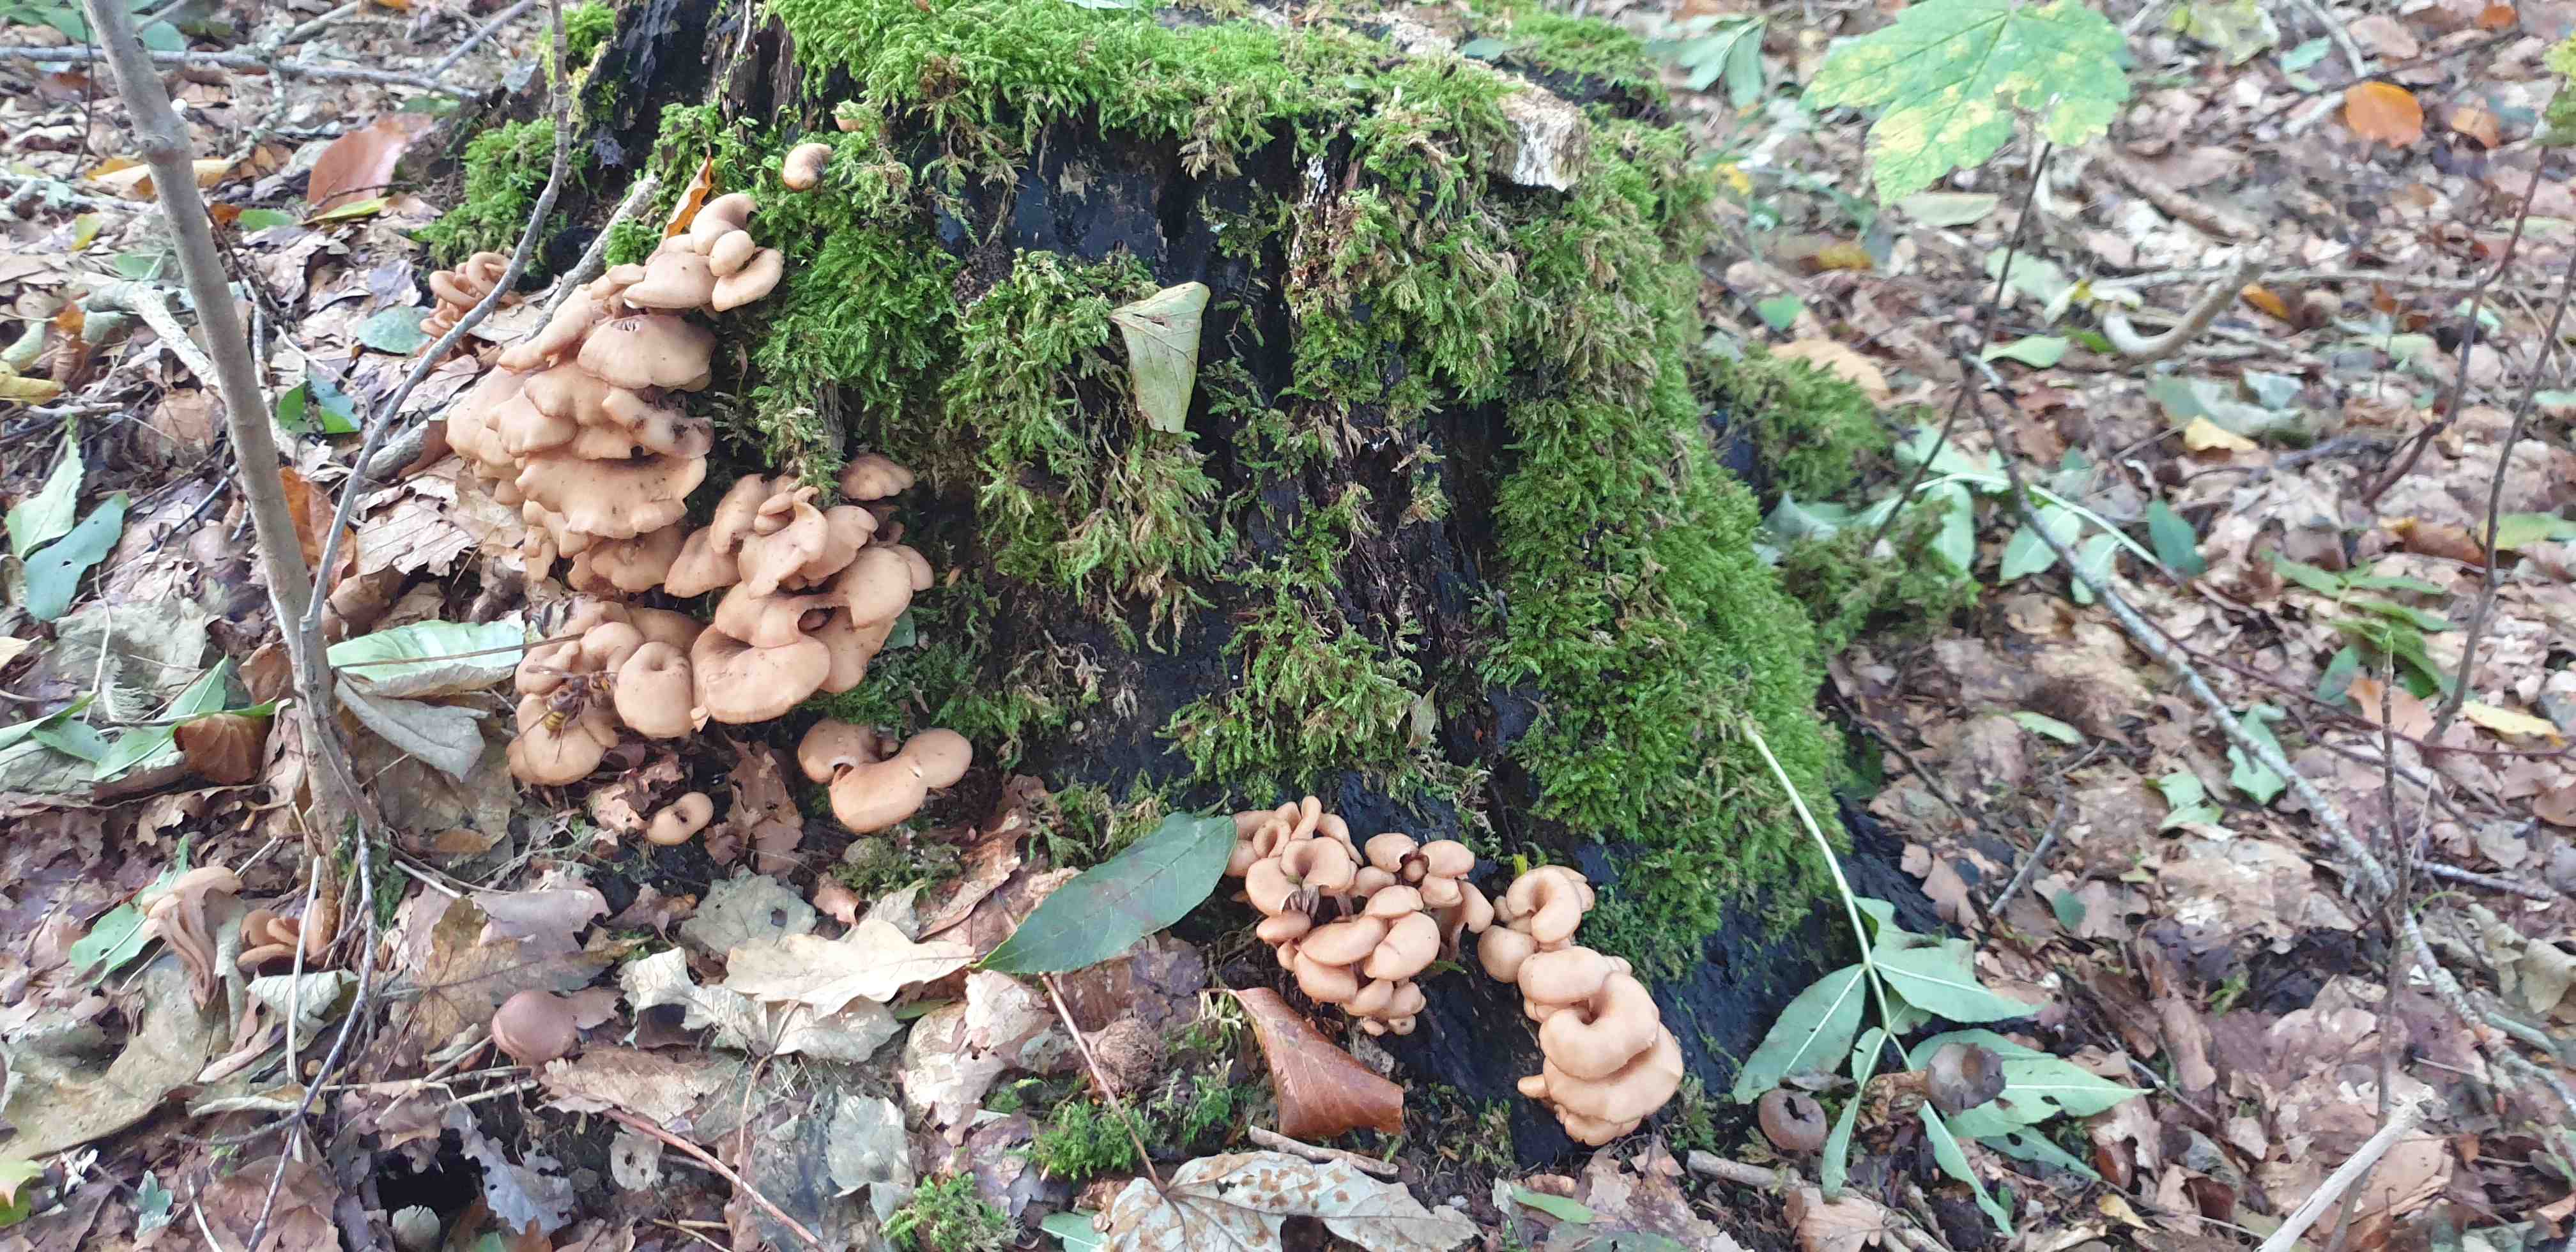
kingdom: Fungi
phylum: Basidiomycota
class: Agaricomycetes
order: Russulales
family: Auriscalpiaceae
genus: Lentinellus
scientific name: Lentinellus cochleatus
